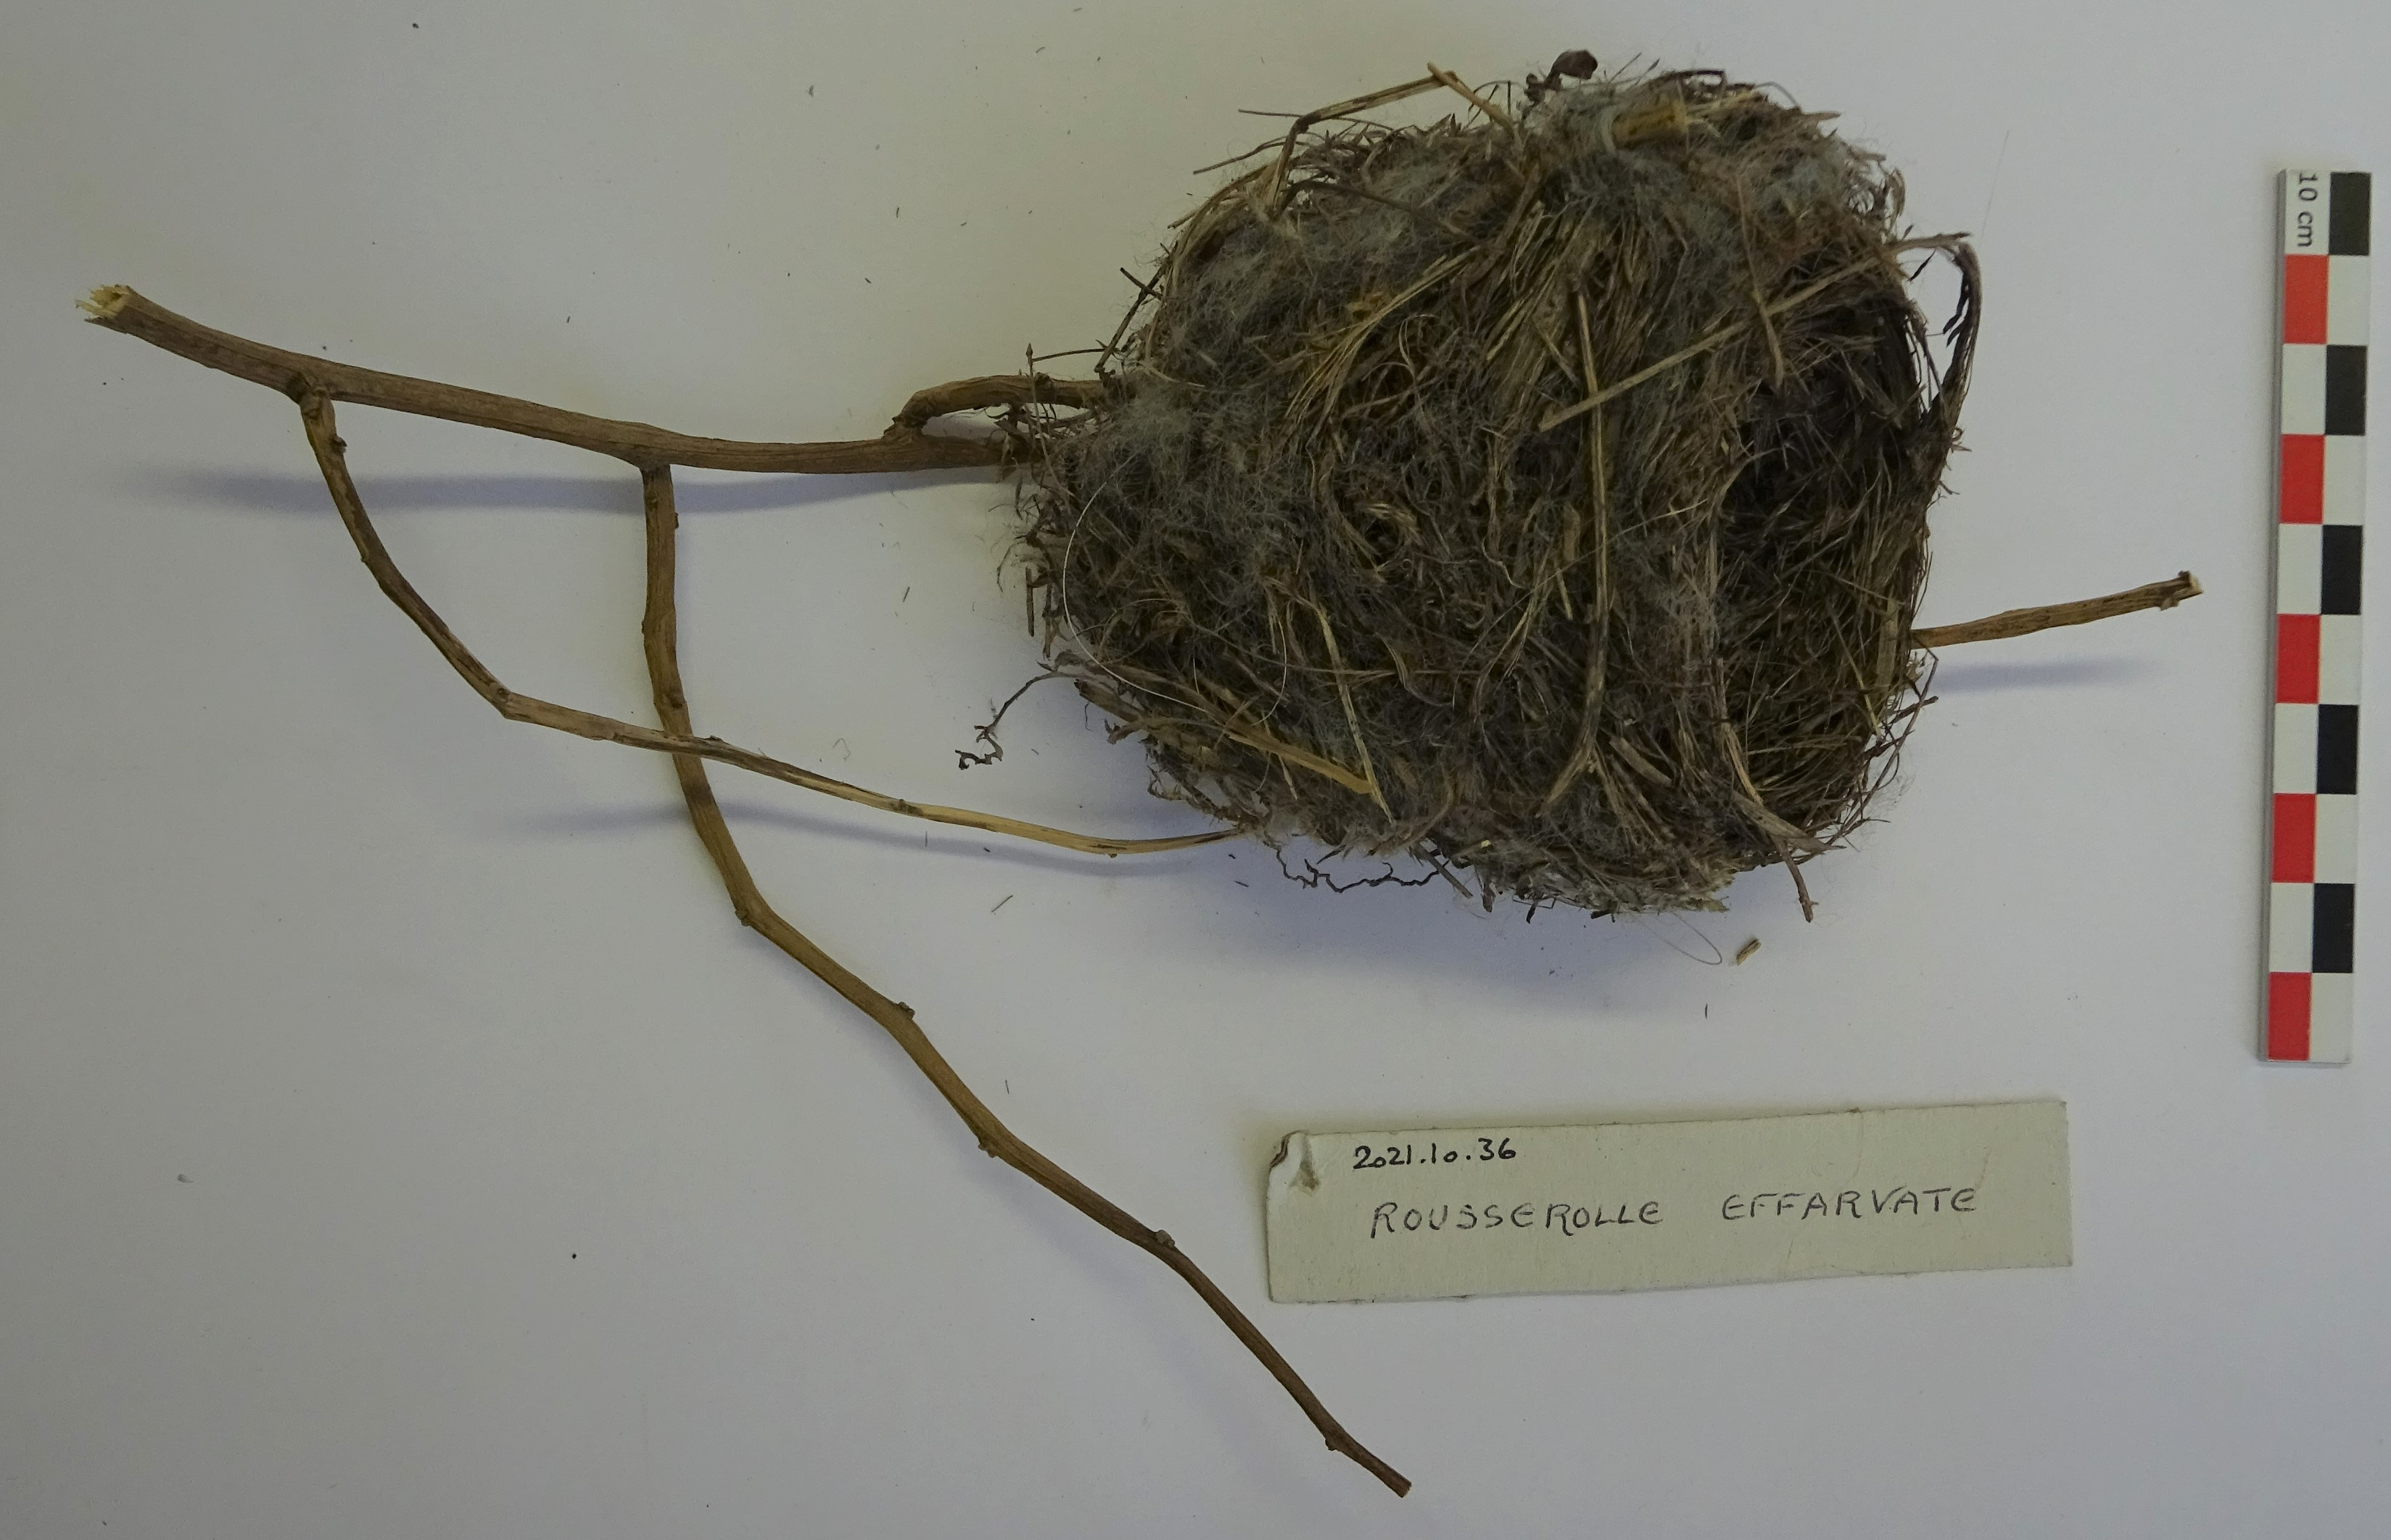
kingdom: Animalia
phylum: Chordata
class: Aves
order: Passeriformes
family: Acrocephalidae
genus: Acrocephalus
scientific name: Acrocephalus scirpaceus
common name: Eurasian reed warbler
